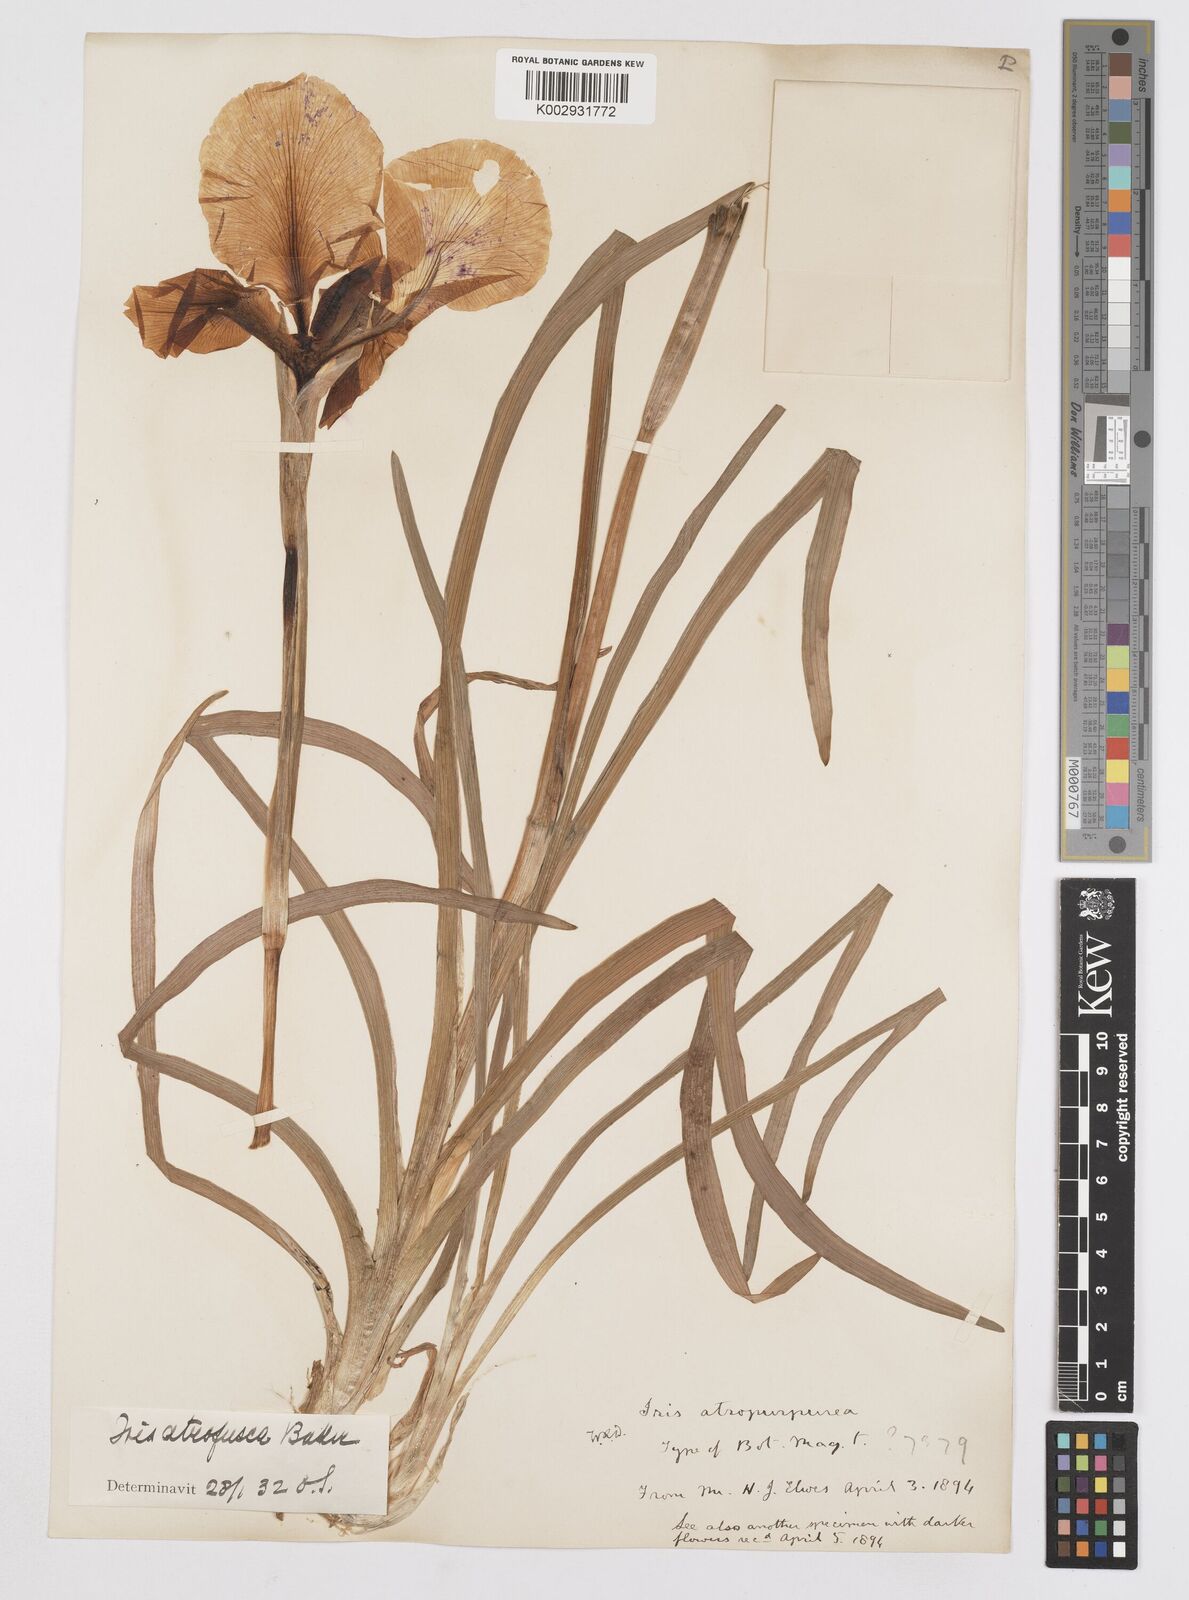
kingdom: Plantae
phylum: Tracheophyta
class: Liliopsida
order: Asparagales
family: Iridaceae
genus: Iris
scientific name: Iris atropurpurea
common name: Coastal iris
